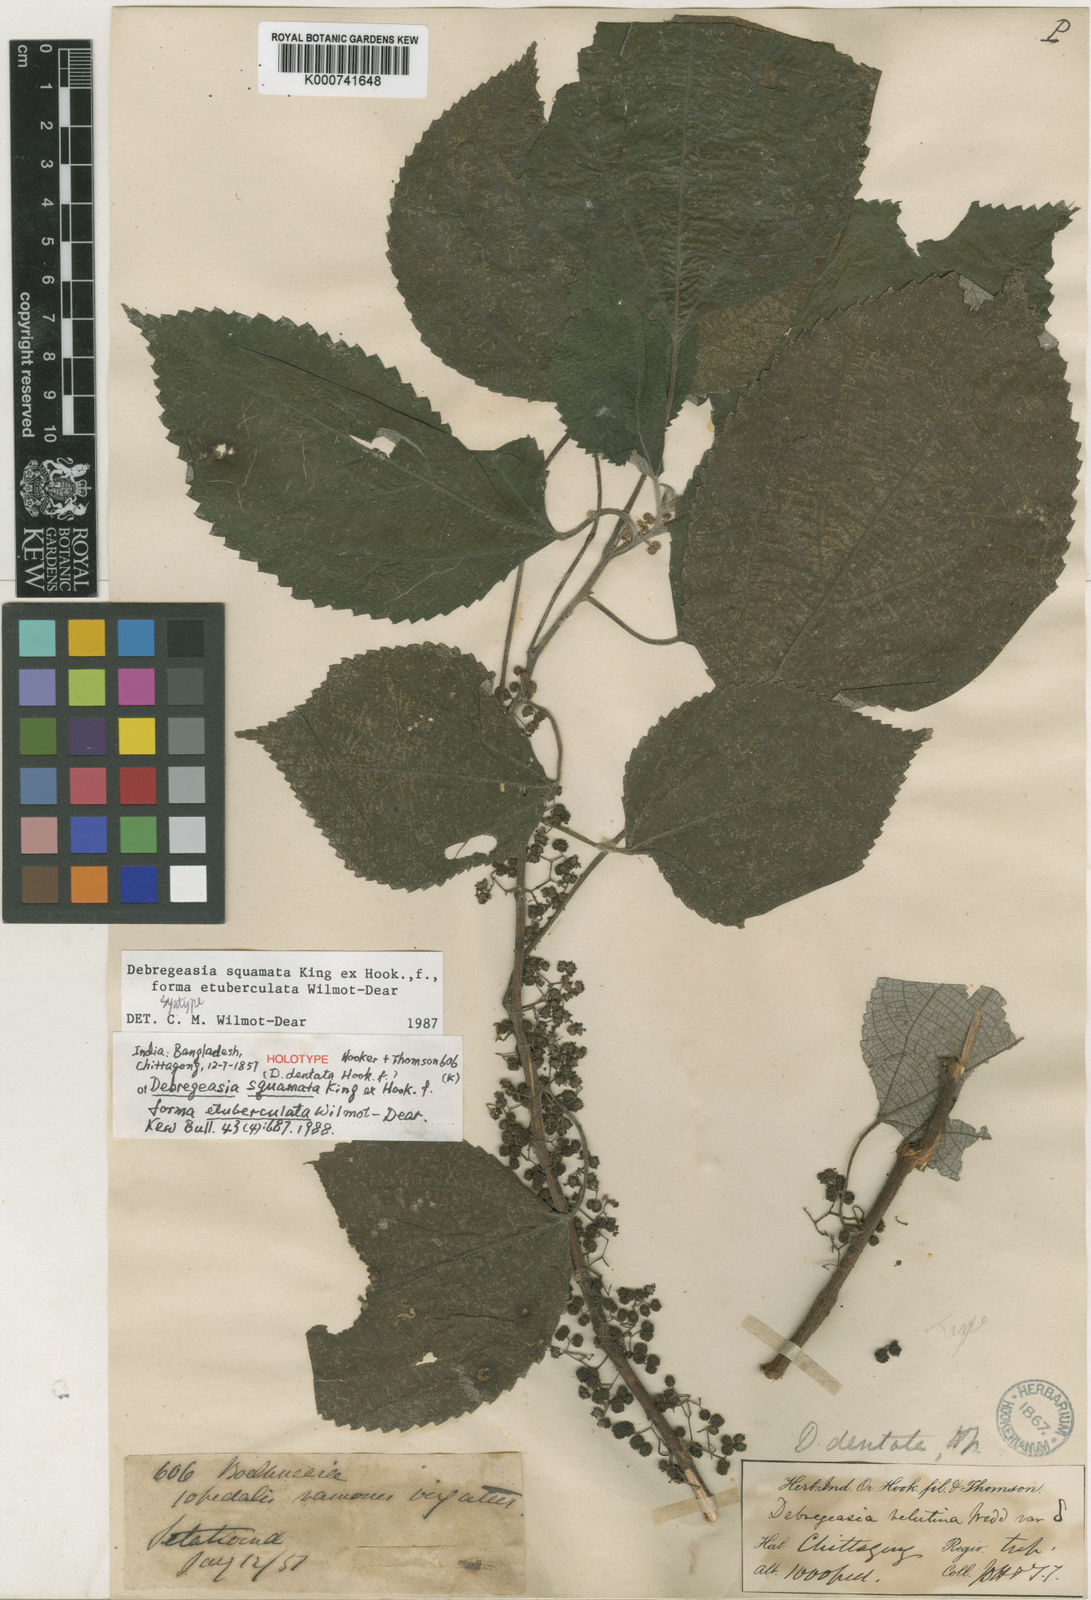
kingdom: Plantae
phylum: Tracheophyta
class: Magnoliopsida
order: Rosales
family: Urticaceae
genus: Debregeasia
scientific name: Debregeasia dentata
